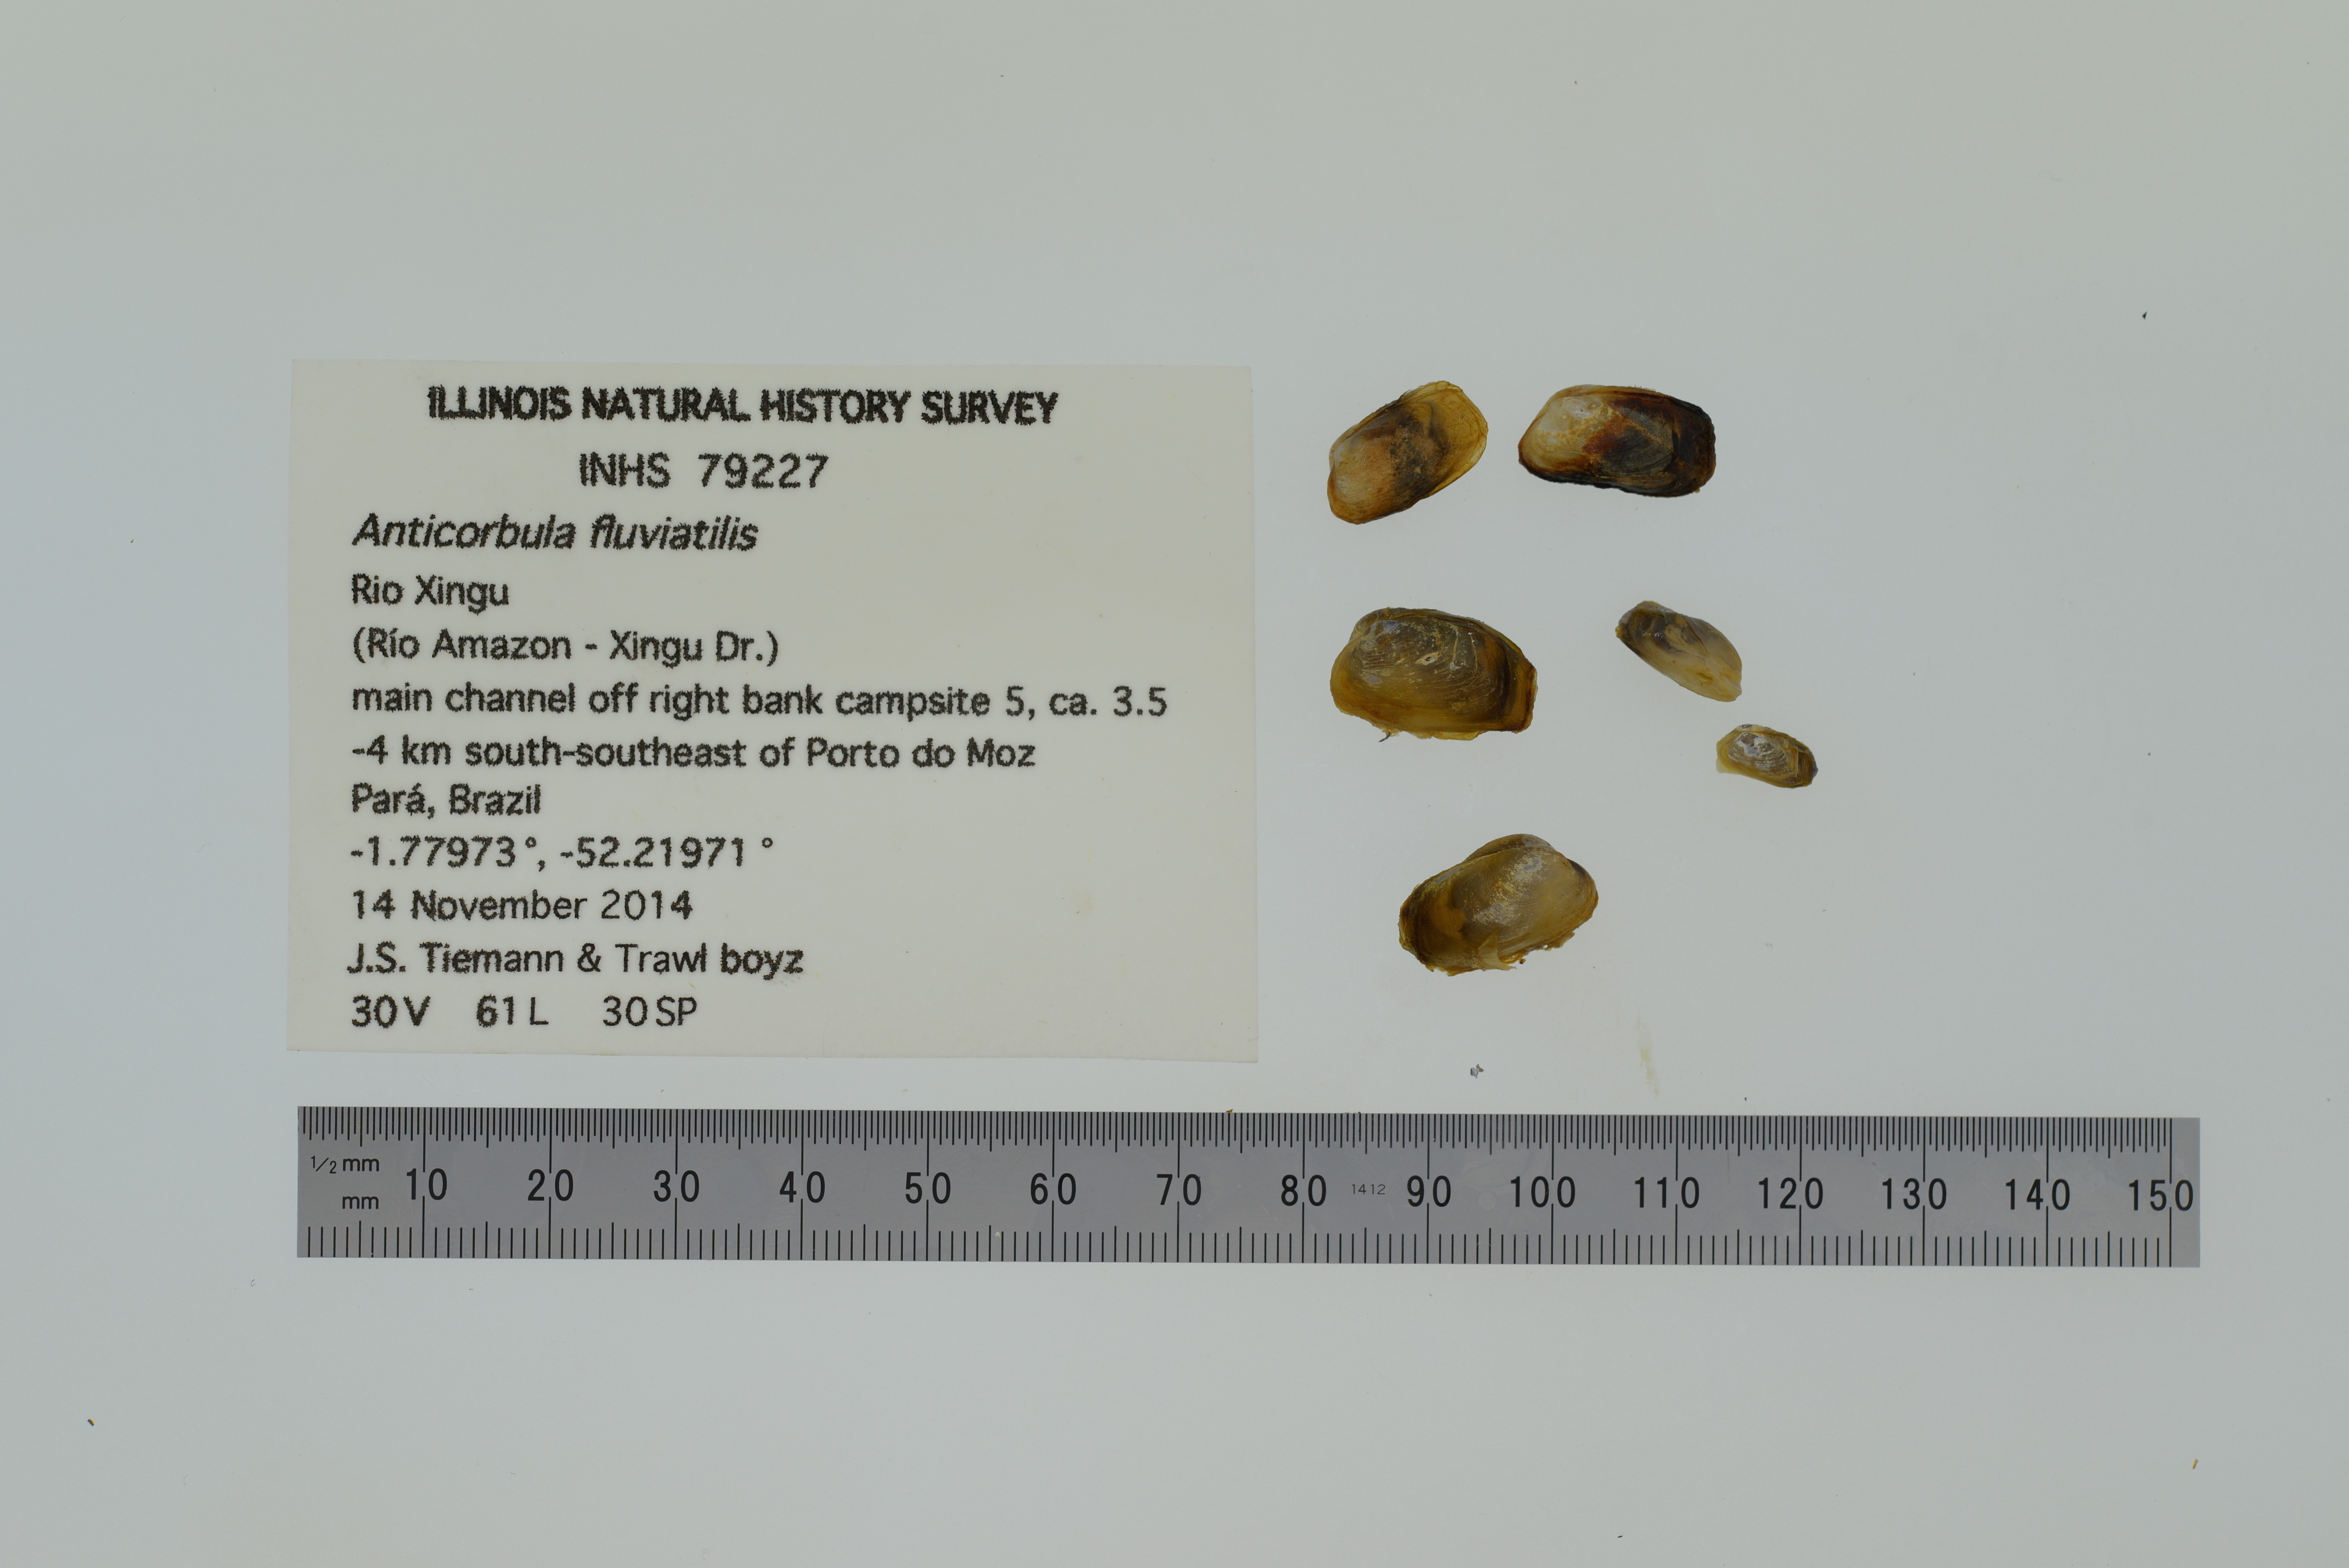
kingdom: Animalia
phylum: Mollusca
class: Bivalvia
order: Myida
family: Corbulidae
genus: Anticorbula
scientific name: Anticorbula fluviatilis
